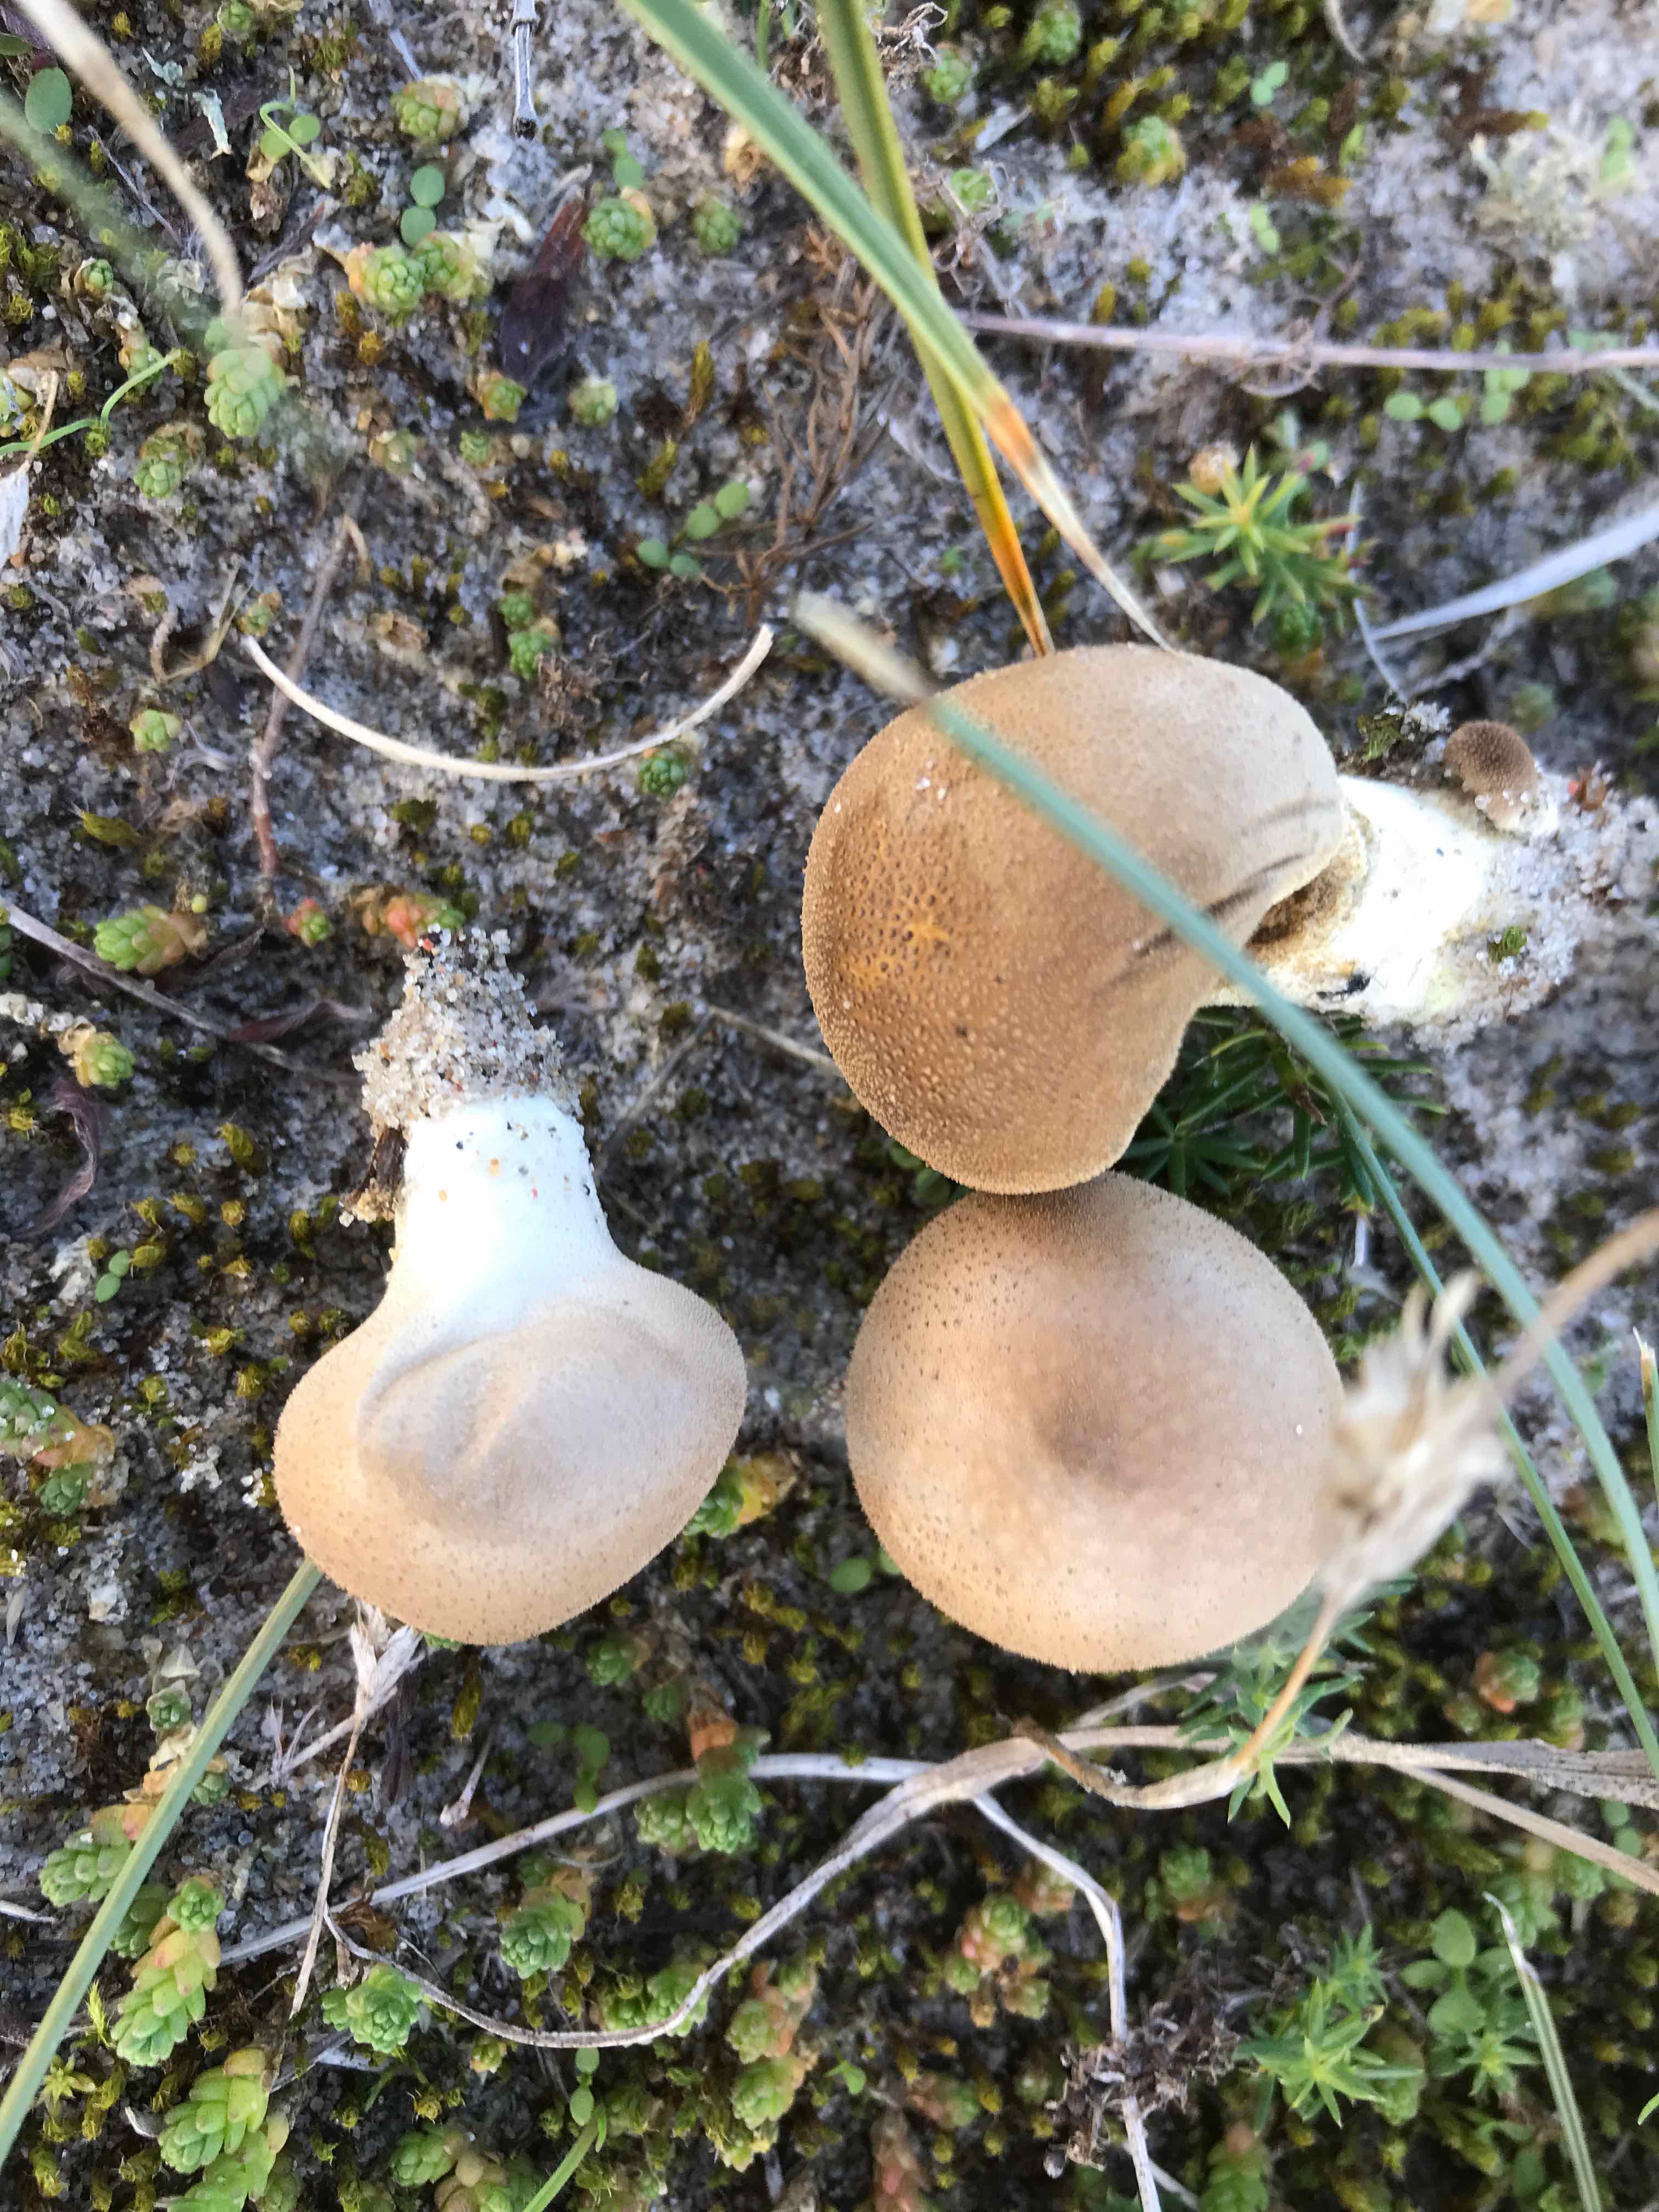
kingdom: Fungi
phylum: Basidiomycota
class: Agaricomycetes
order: Agaricales
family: Lycoperdaceae
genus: Lycoperdon
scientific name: Lycoperdon lividum
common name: mark-støvbold
